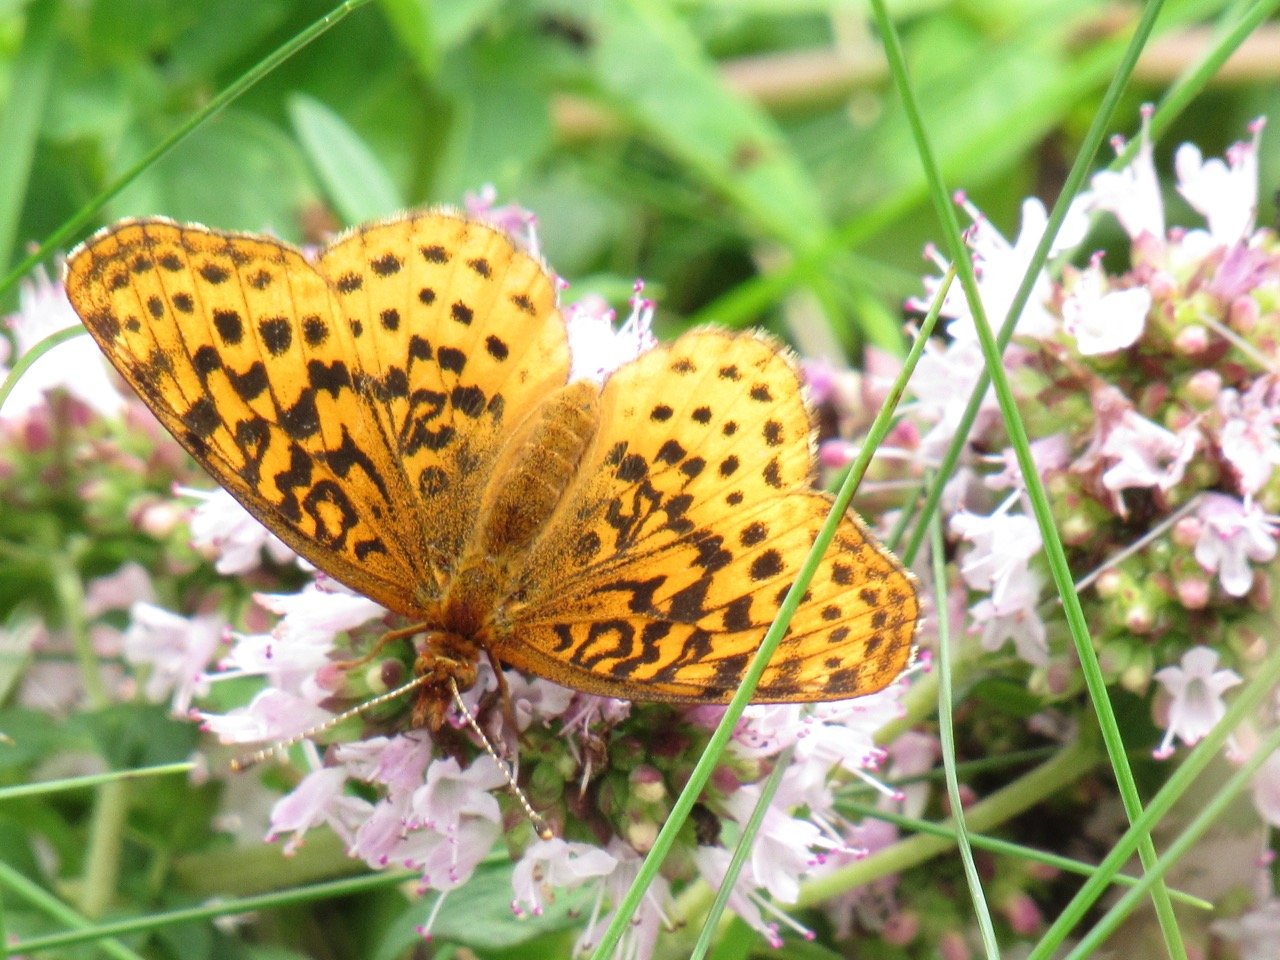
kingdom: Animalia
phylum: Arthropoda
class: Insecta
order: Lepidoptera
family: Nymphalidae
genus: Clossiana
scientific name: Clossiana toddi
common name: Meadow Fritillary
